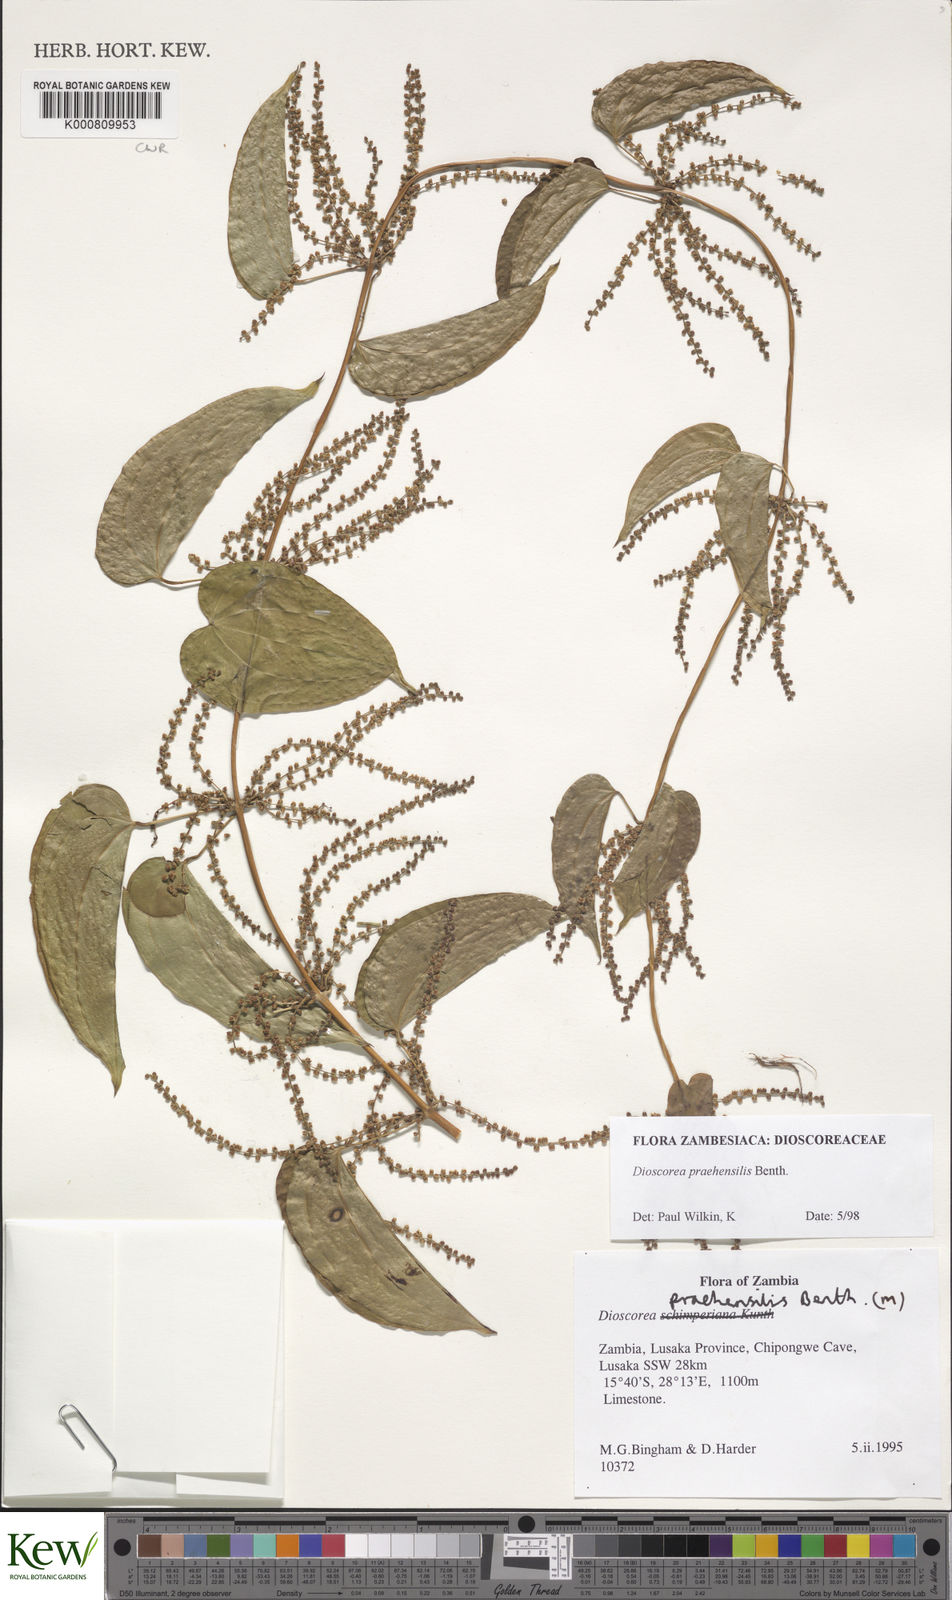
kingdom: Plantae
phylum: Tracheophyta
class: Liliopsida
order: Dioscoreales
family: Dioscoreaceae
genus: Dioscorea
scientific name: Dioscorea praehensilis
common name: Bush yam
